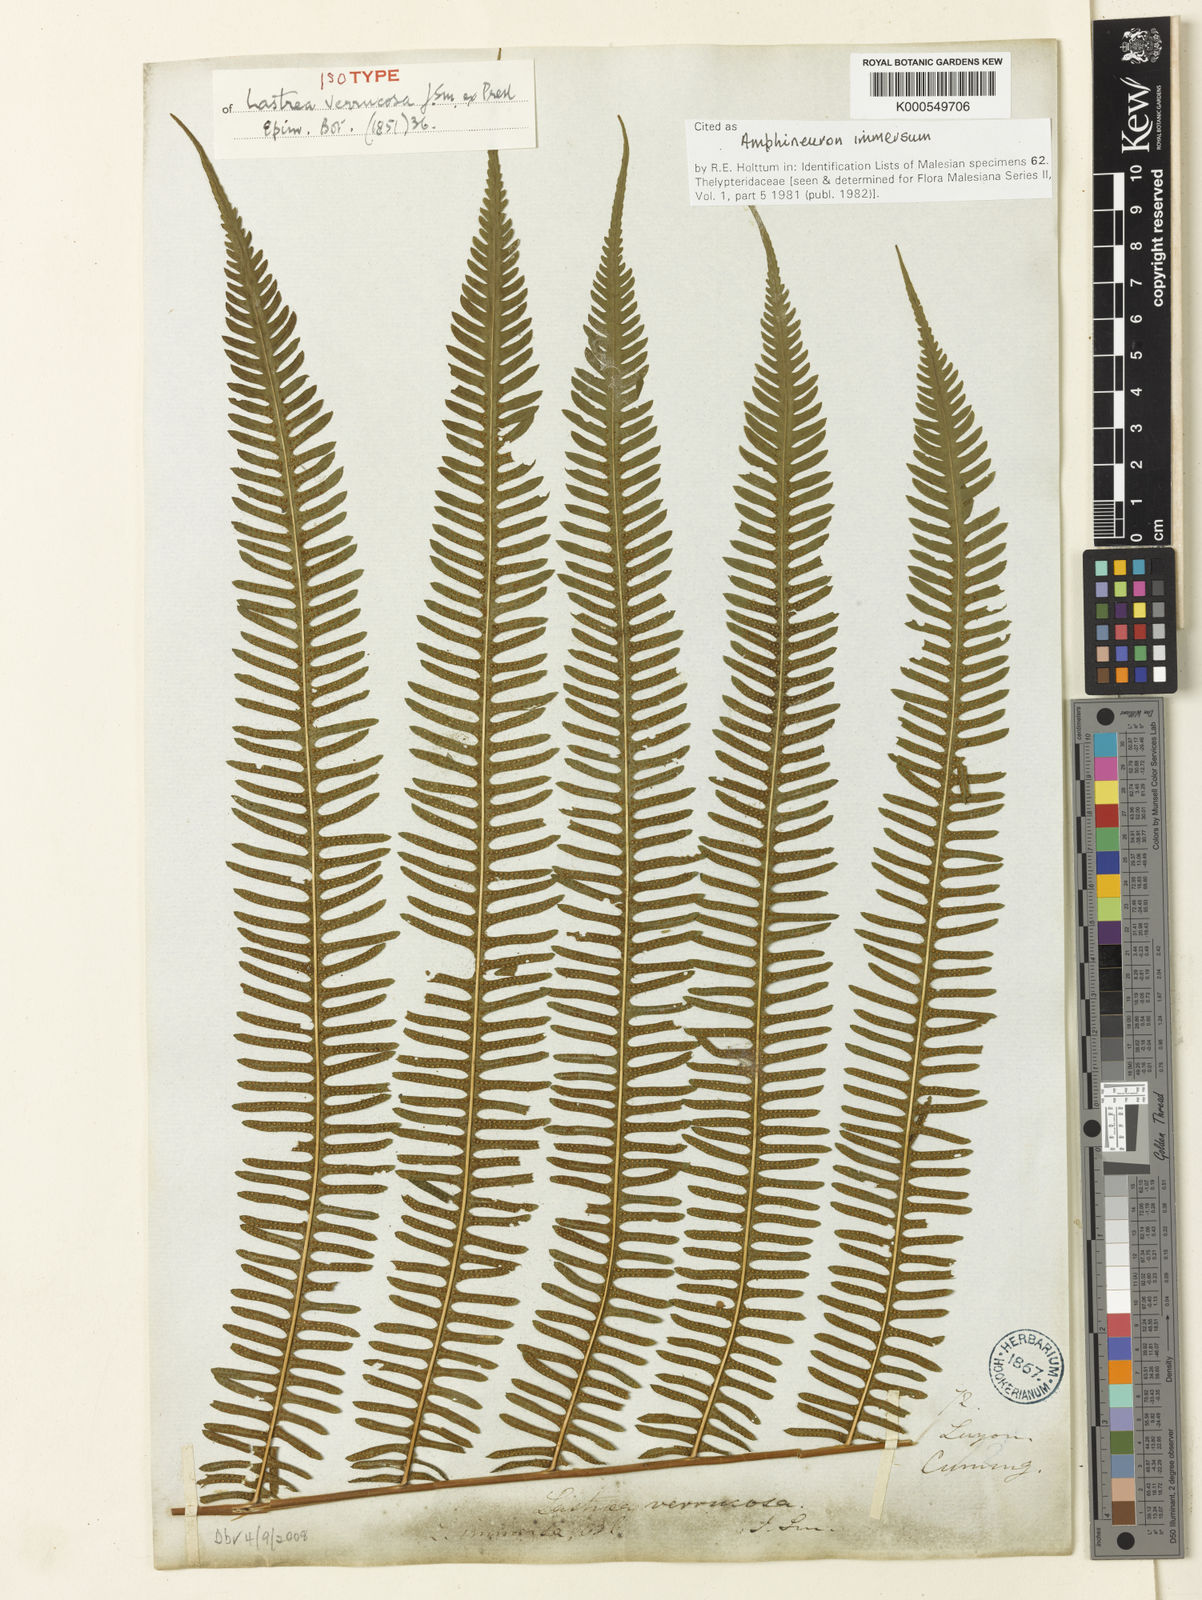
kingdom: Plantae
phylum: Tracheophyta
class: Polypodiopsida
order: Polypodiales
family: Thelypteridaceae
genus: Amblovenatum
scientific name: Amblovenatum immersum
